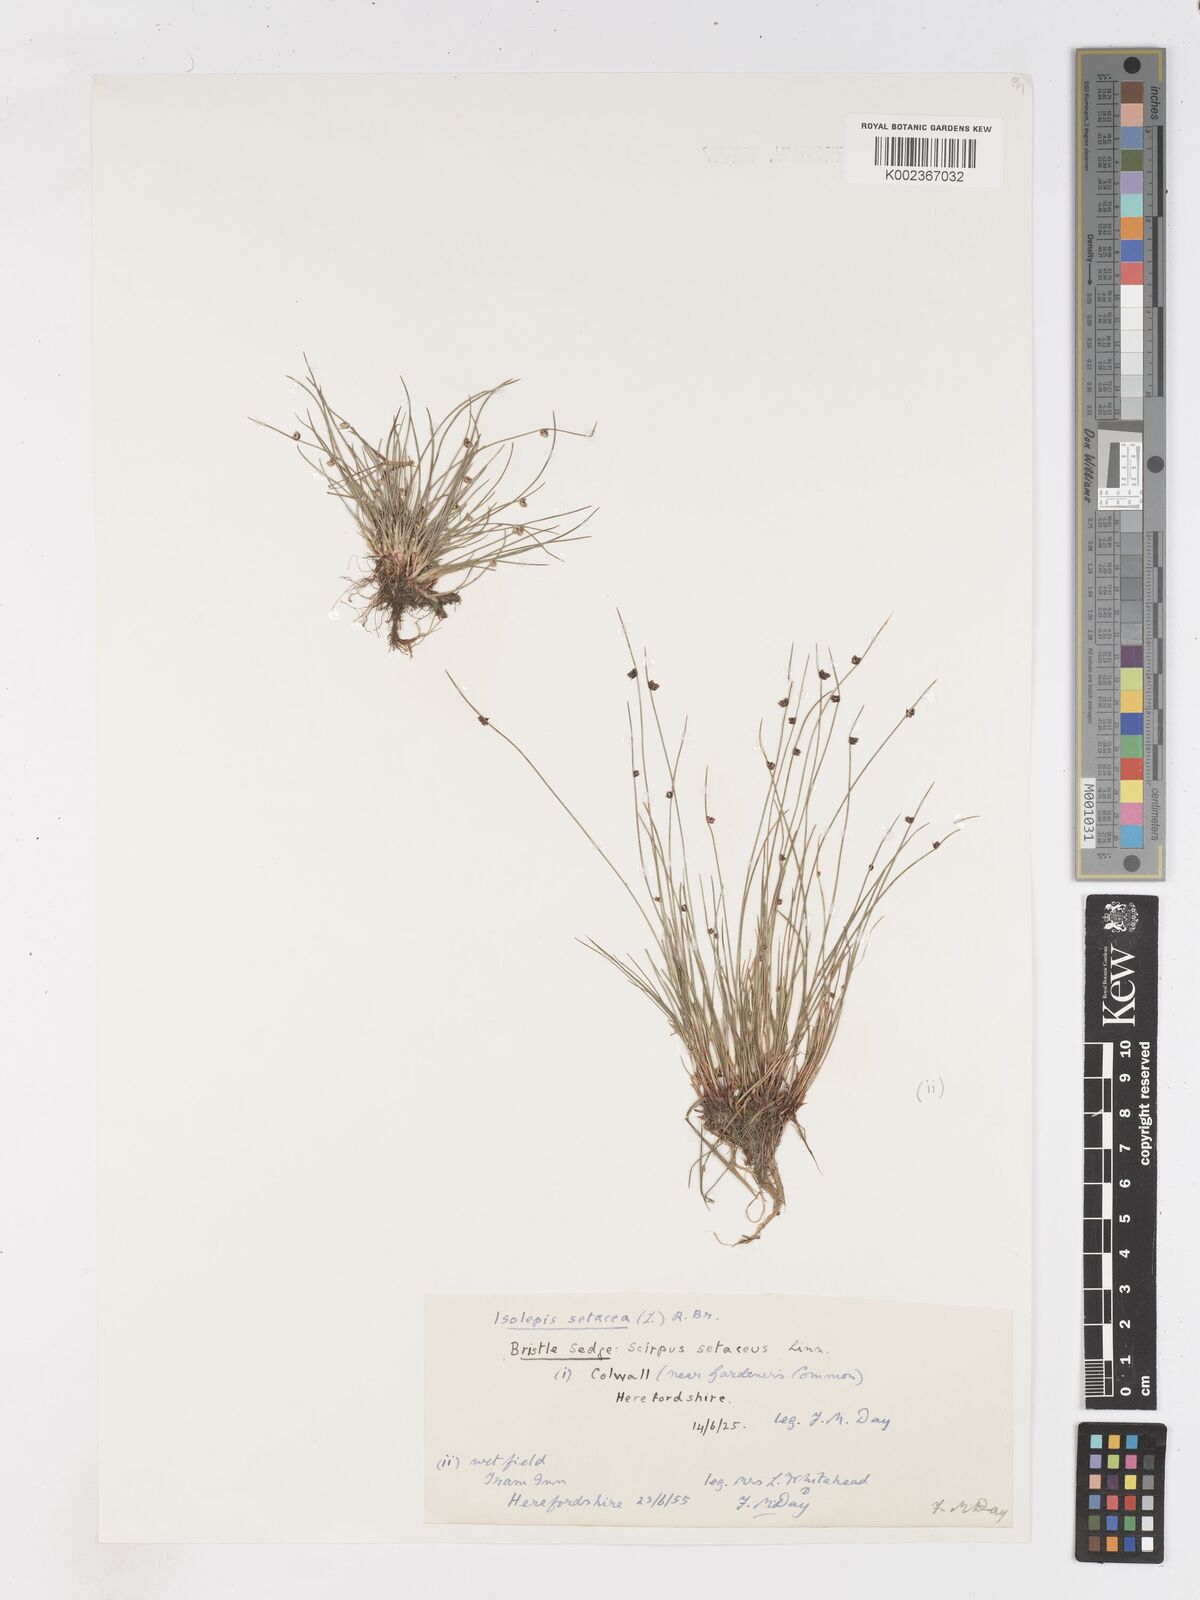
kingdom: Plantae
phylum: Tracheophyta
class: Liliopsida
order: Poales
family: Cyperaceae
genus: Isolepis
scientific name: Isolepis setacea
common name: Bristle club-rush
